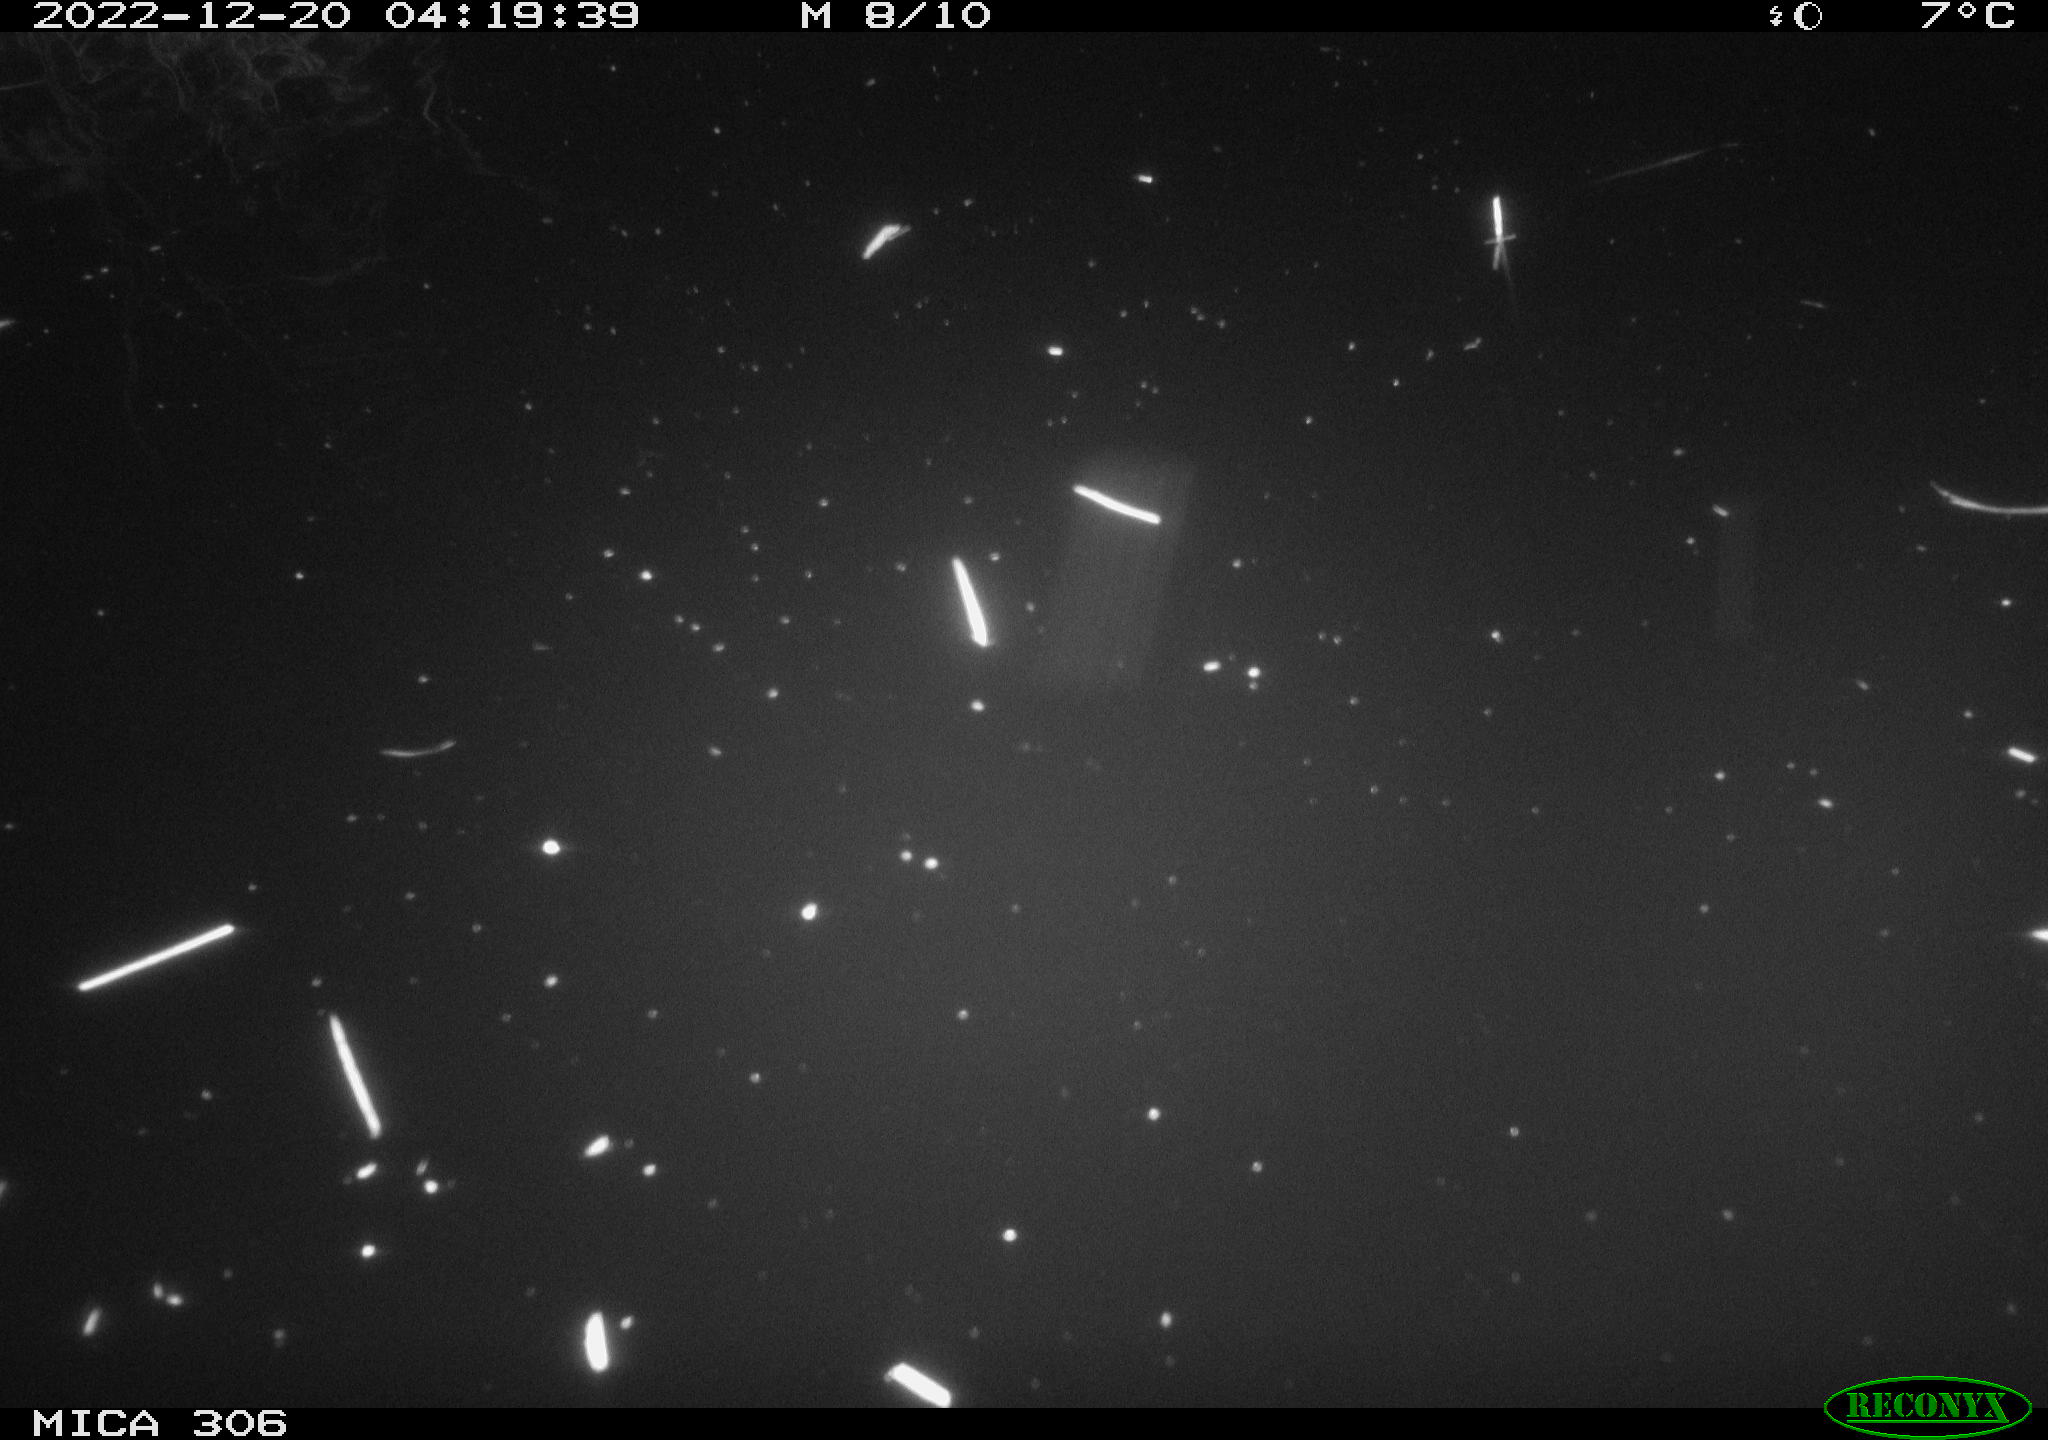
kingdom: Animalia
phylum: Chordata
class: Mammalia
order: Rodentia
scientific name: Rodentia
